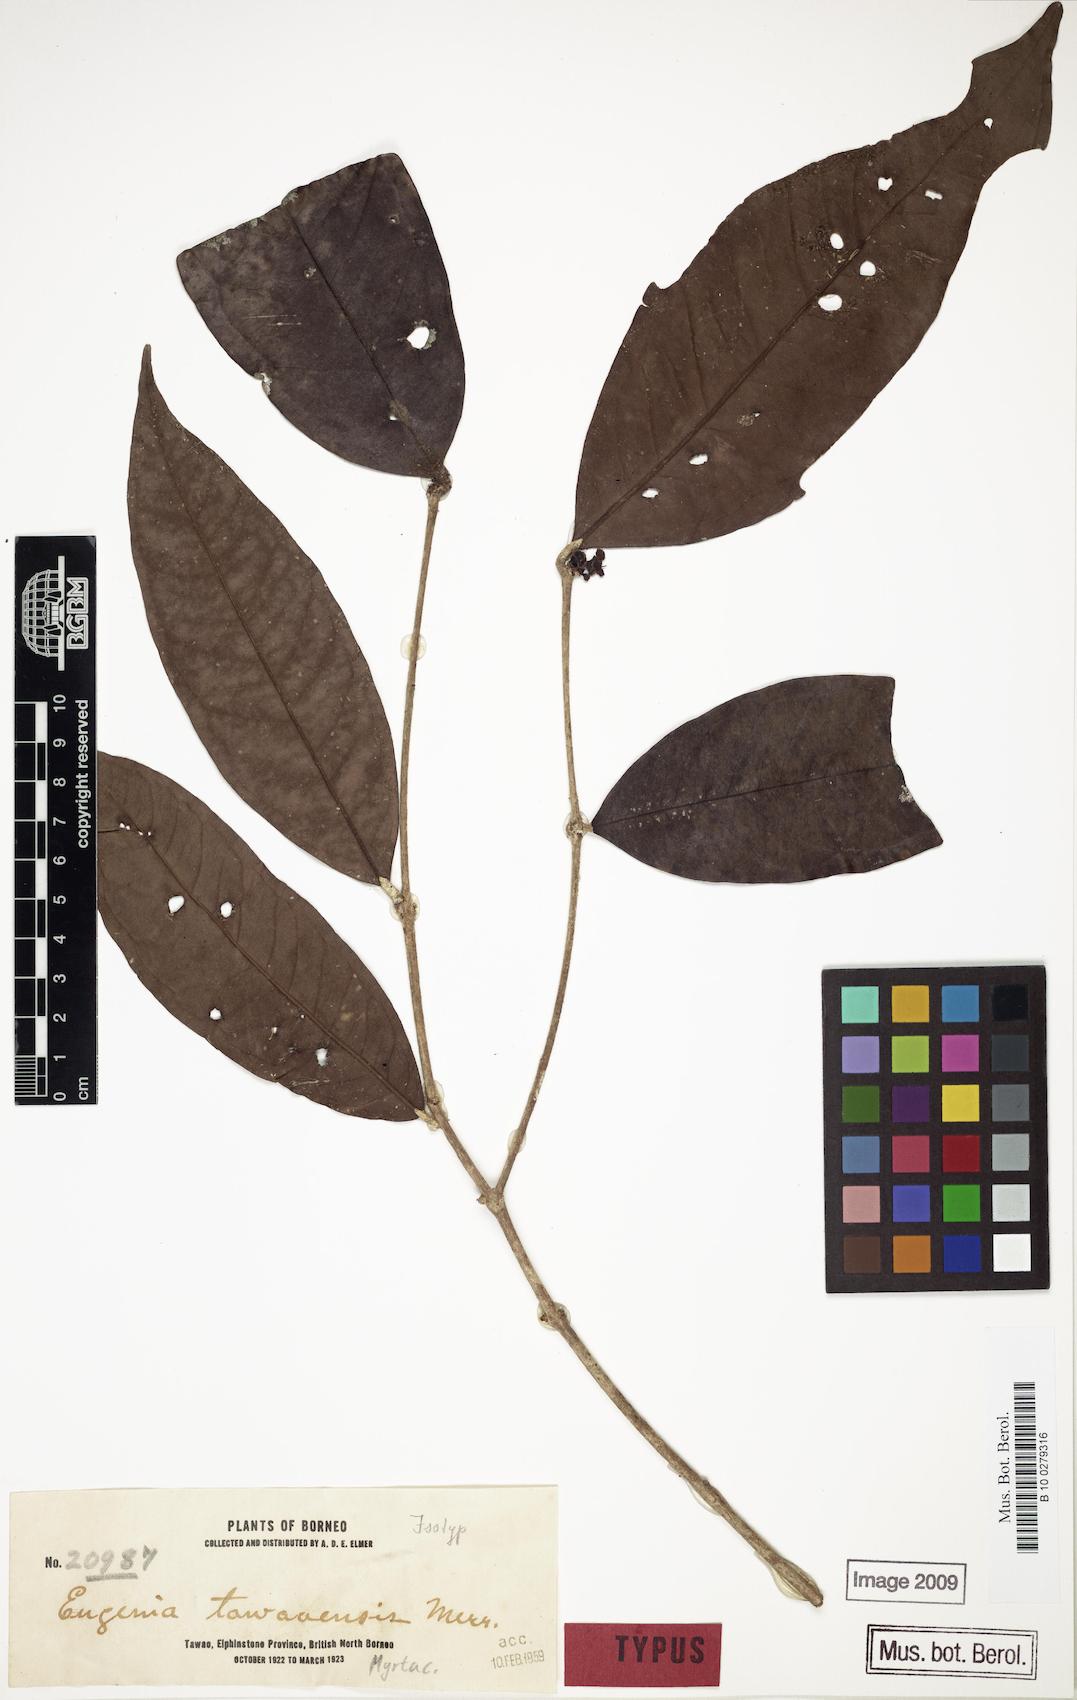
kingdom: Plantae
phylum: Tracheophyta
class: Magnoliopsida
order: Myrtales
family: Myrtaceae
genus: Syzygium
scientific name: Syzygium peregrinum
